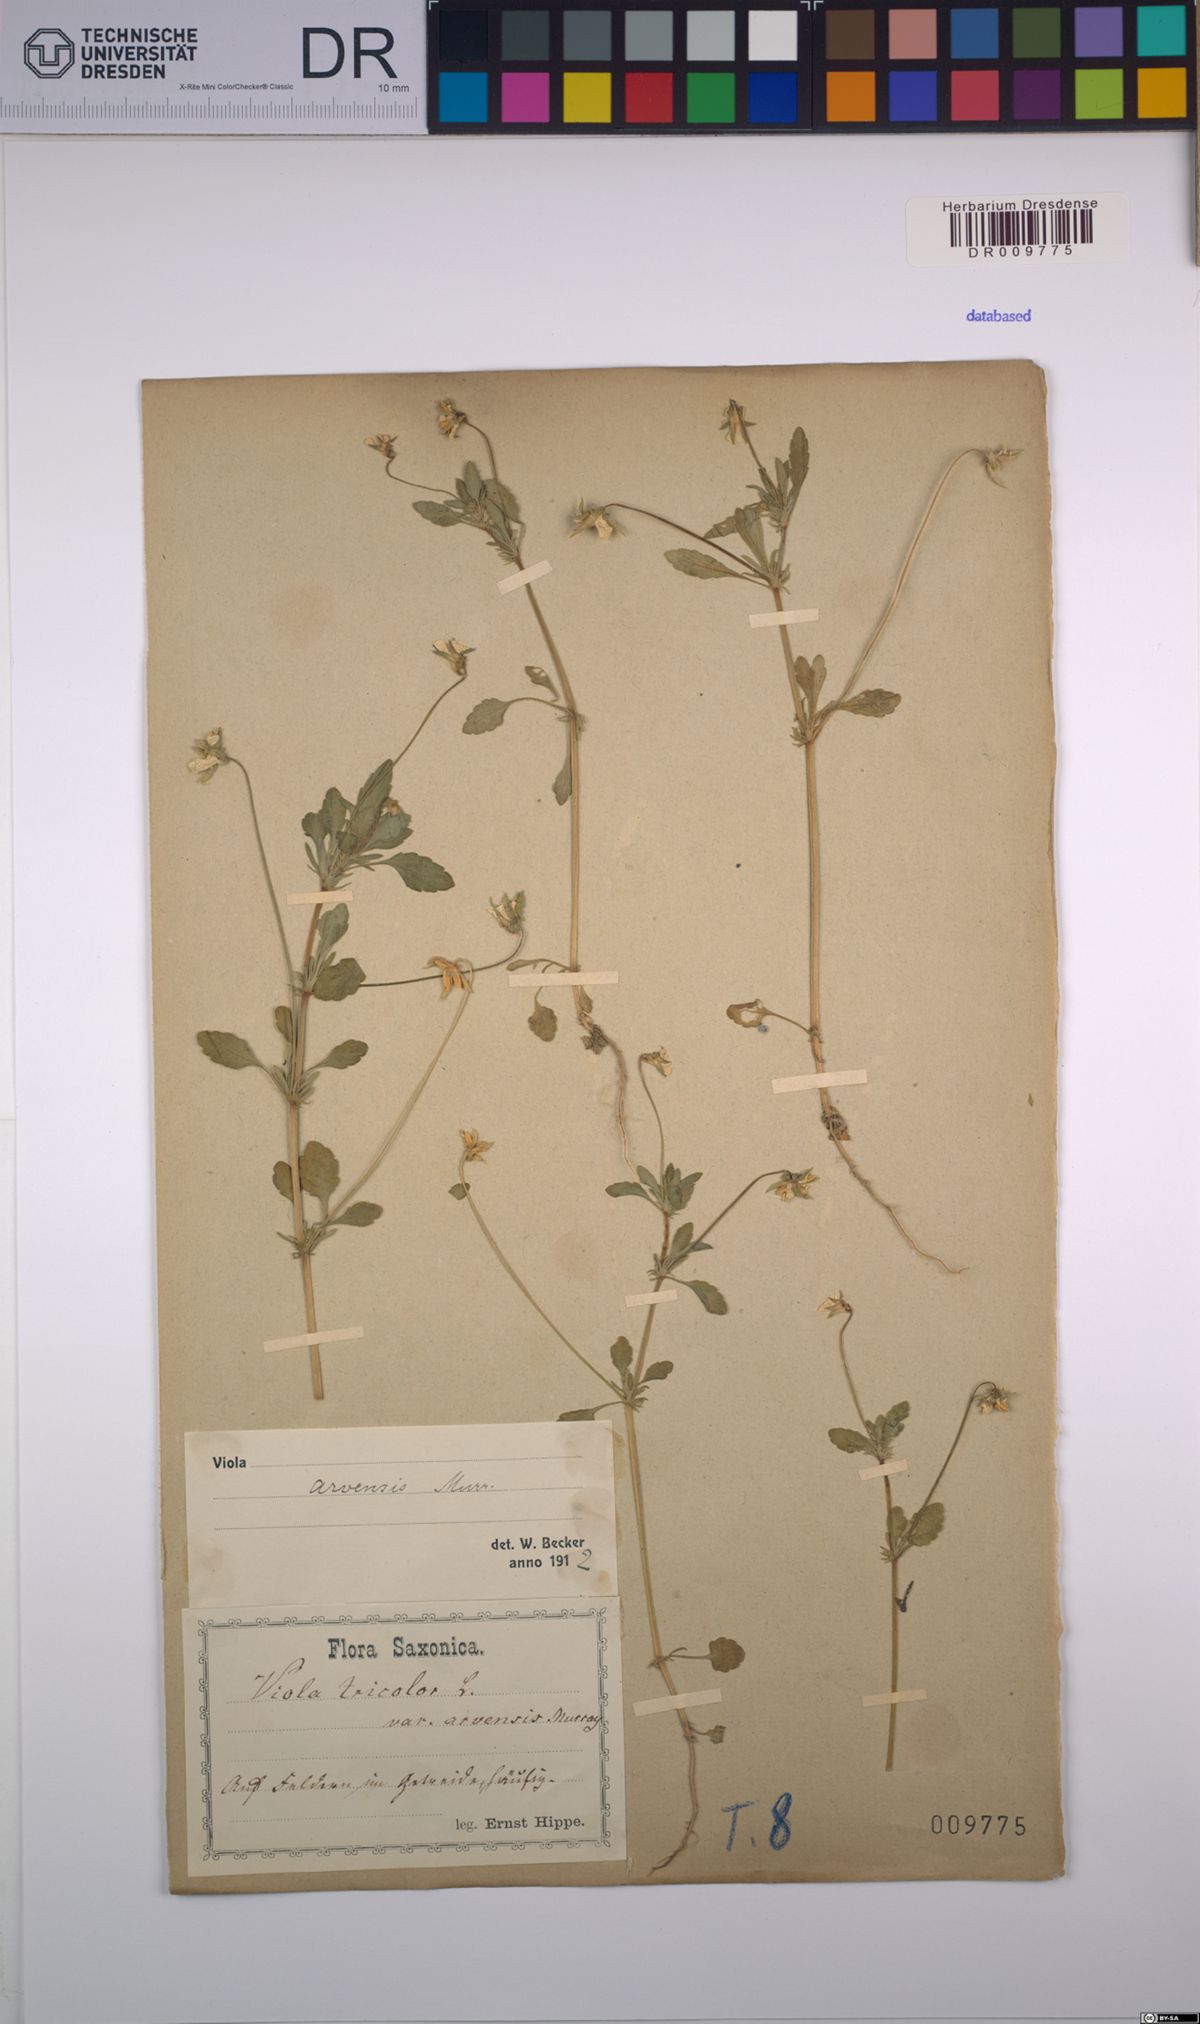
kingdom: Plantae
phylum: Tracheophyta
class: Magnoliopsida
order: Malpighiales
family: Violaceae
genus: Viola
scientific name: Viola arvensis
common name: Field pansy
